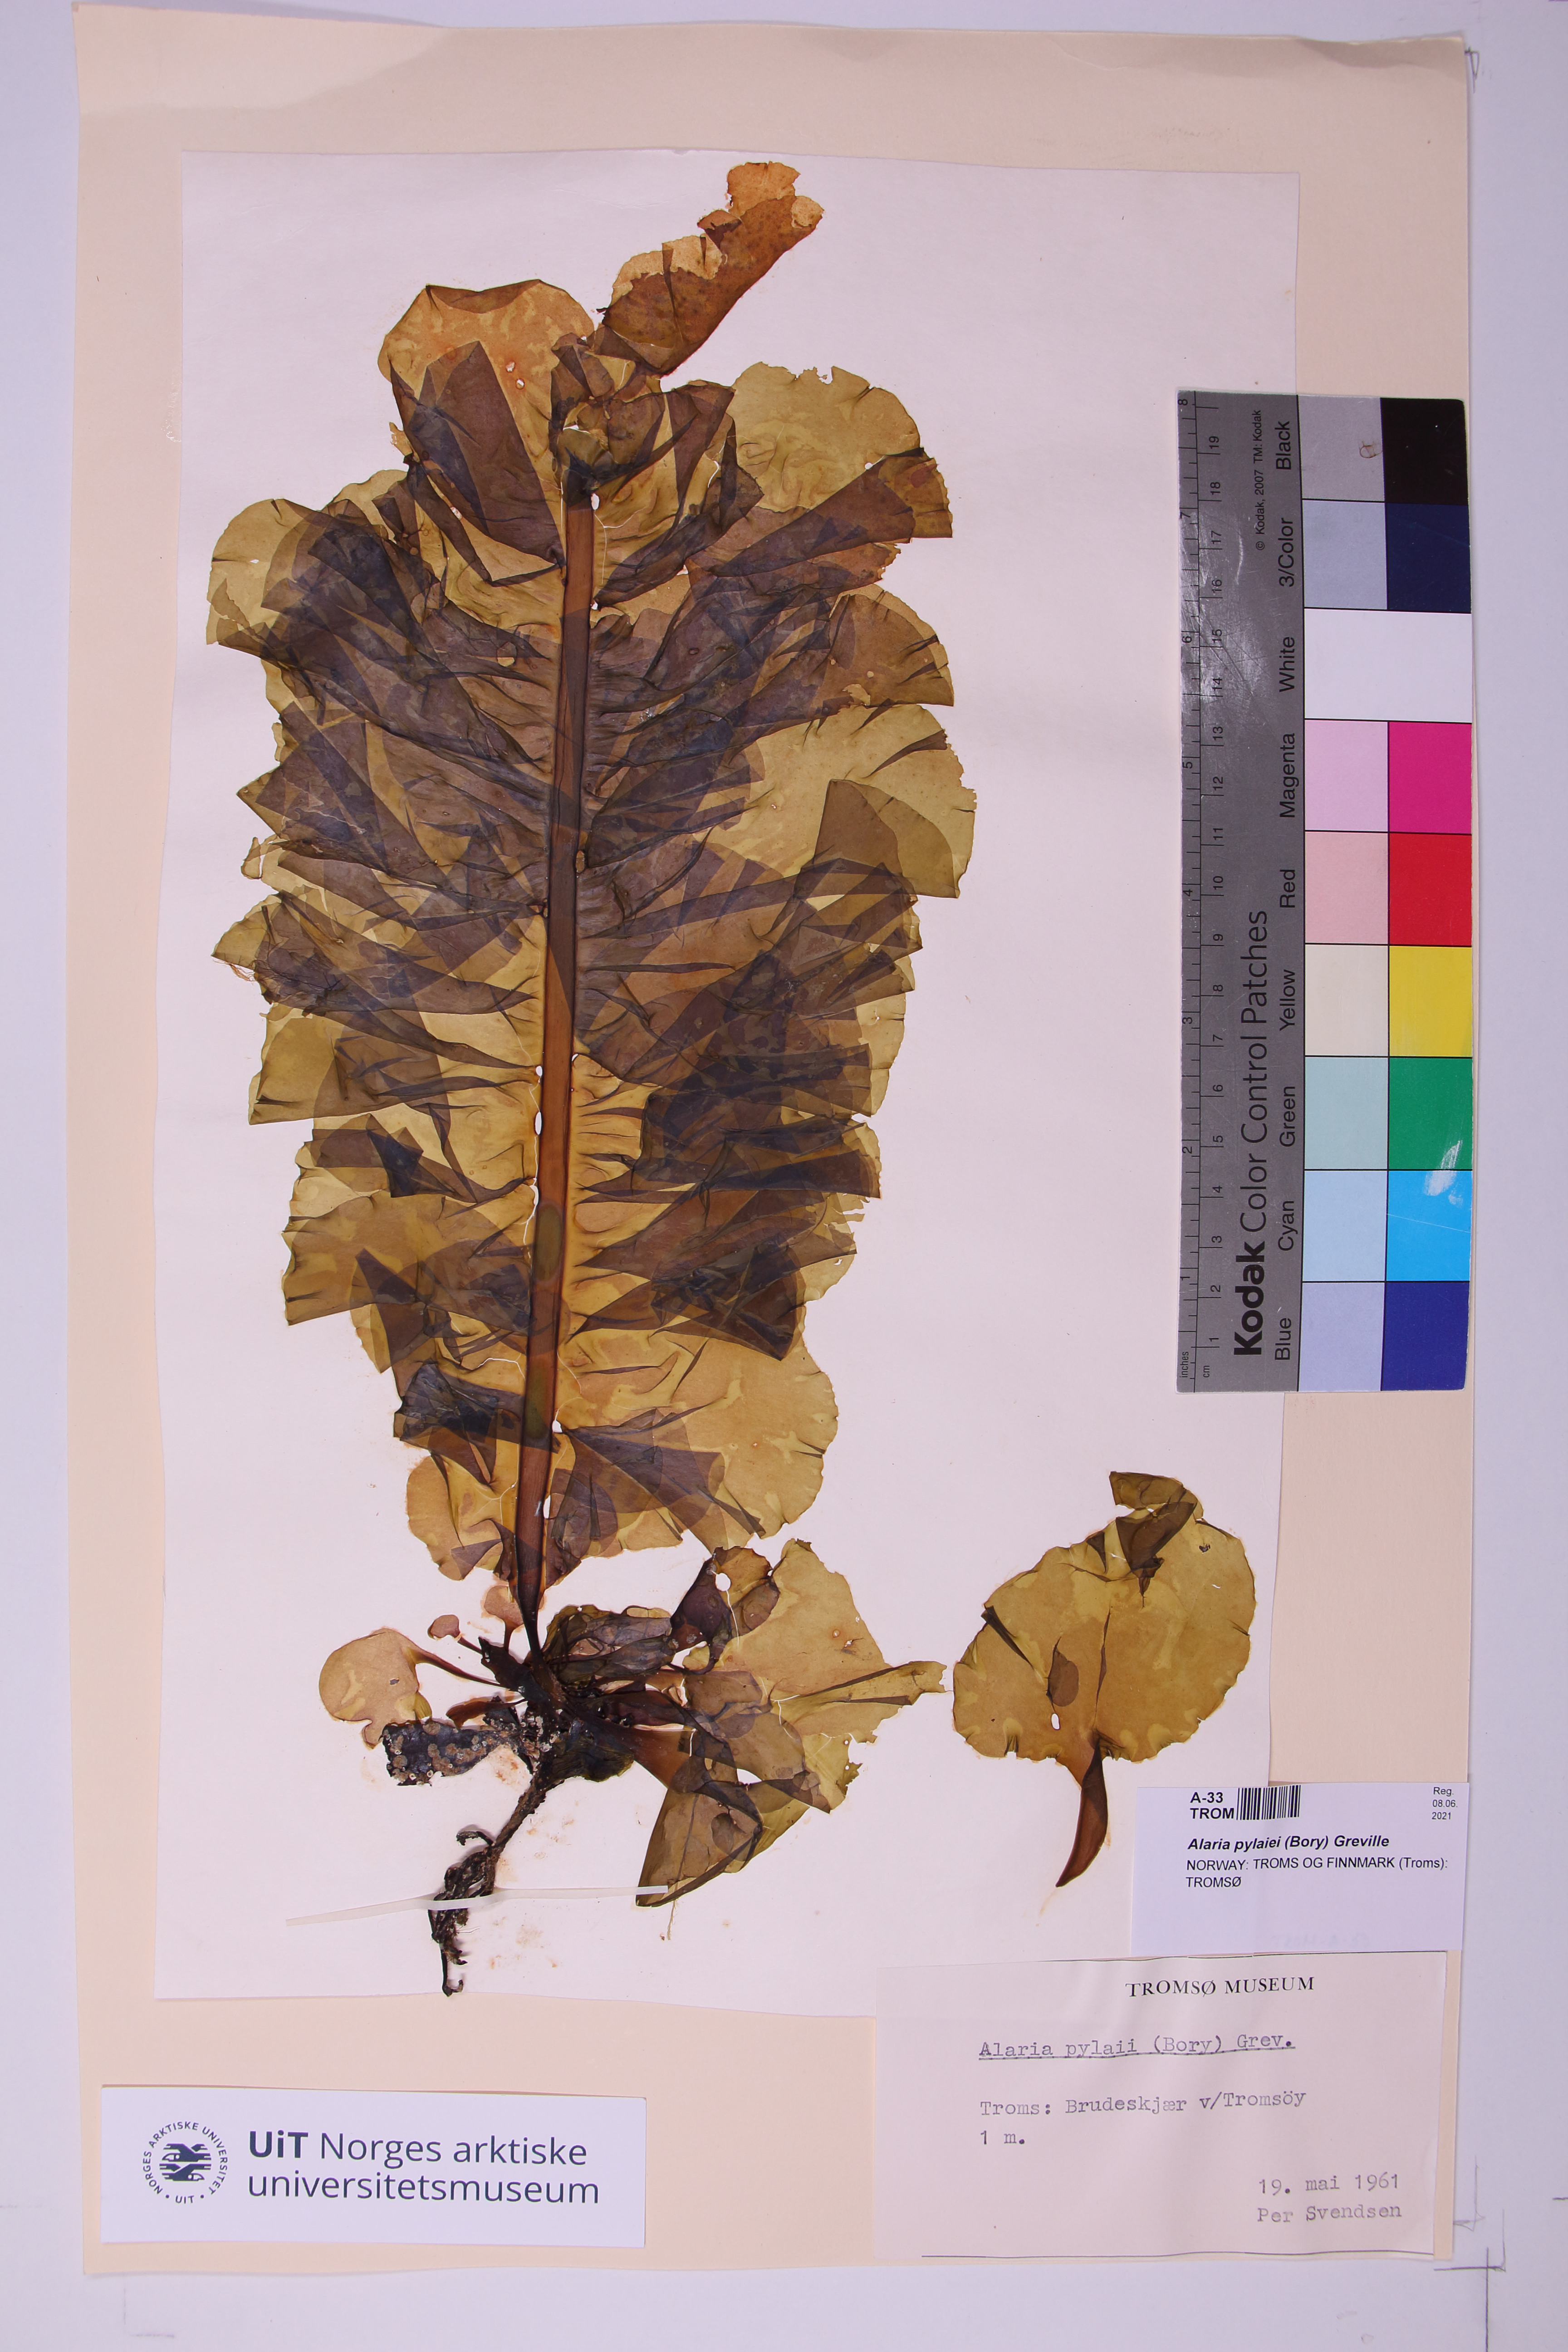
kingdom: Chromista
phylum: Ochrophyta
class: Phaeophyceae
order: Laminariales
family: Alariaceae
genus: Alaria
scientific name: Alaria pylaiei
